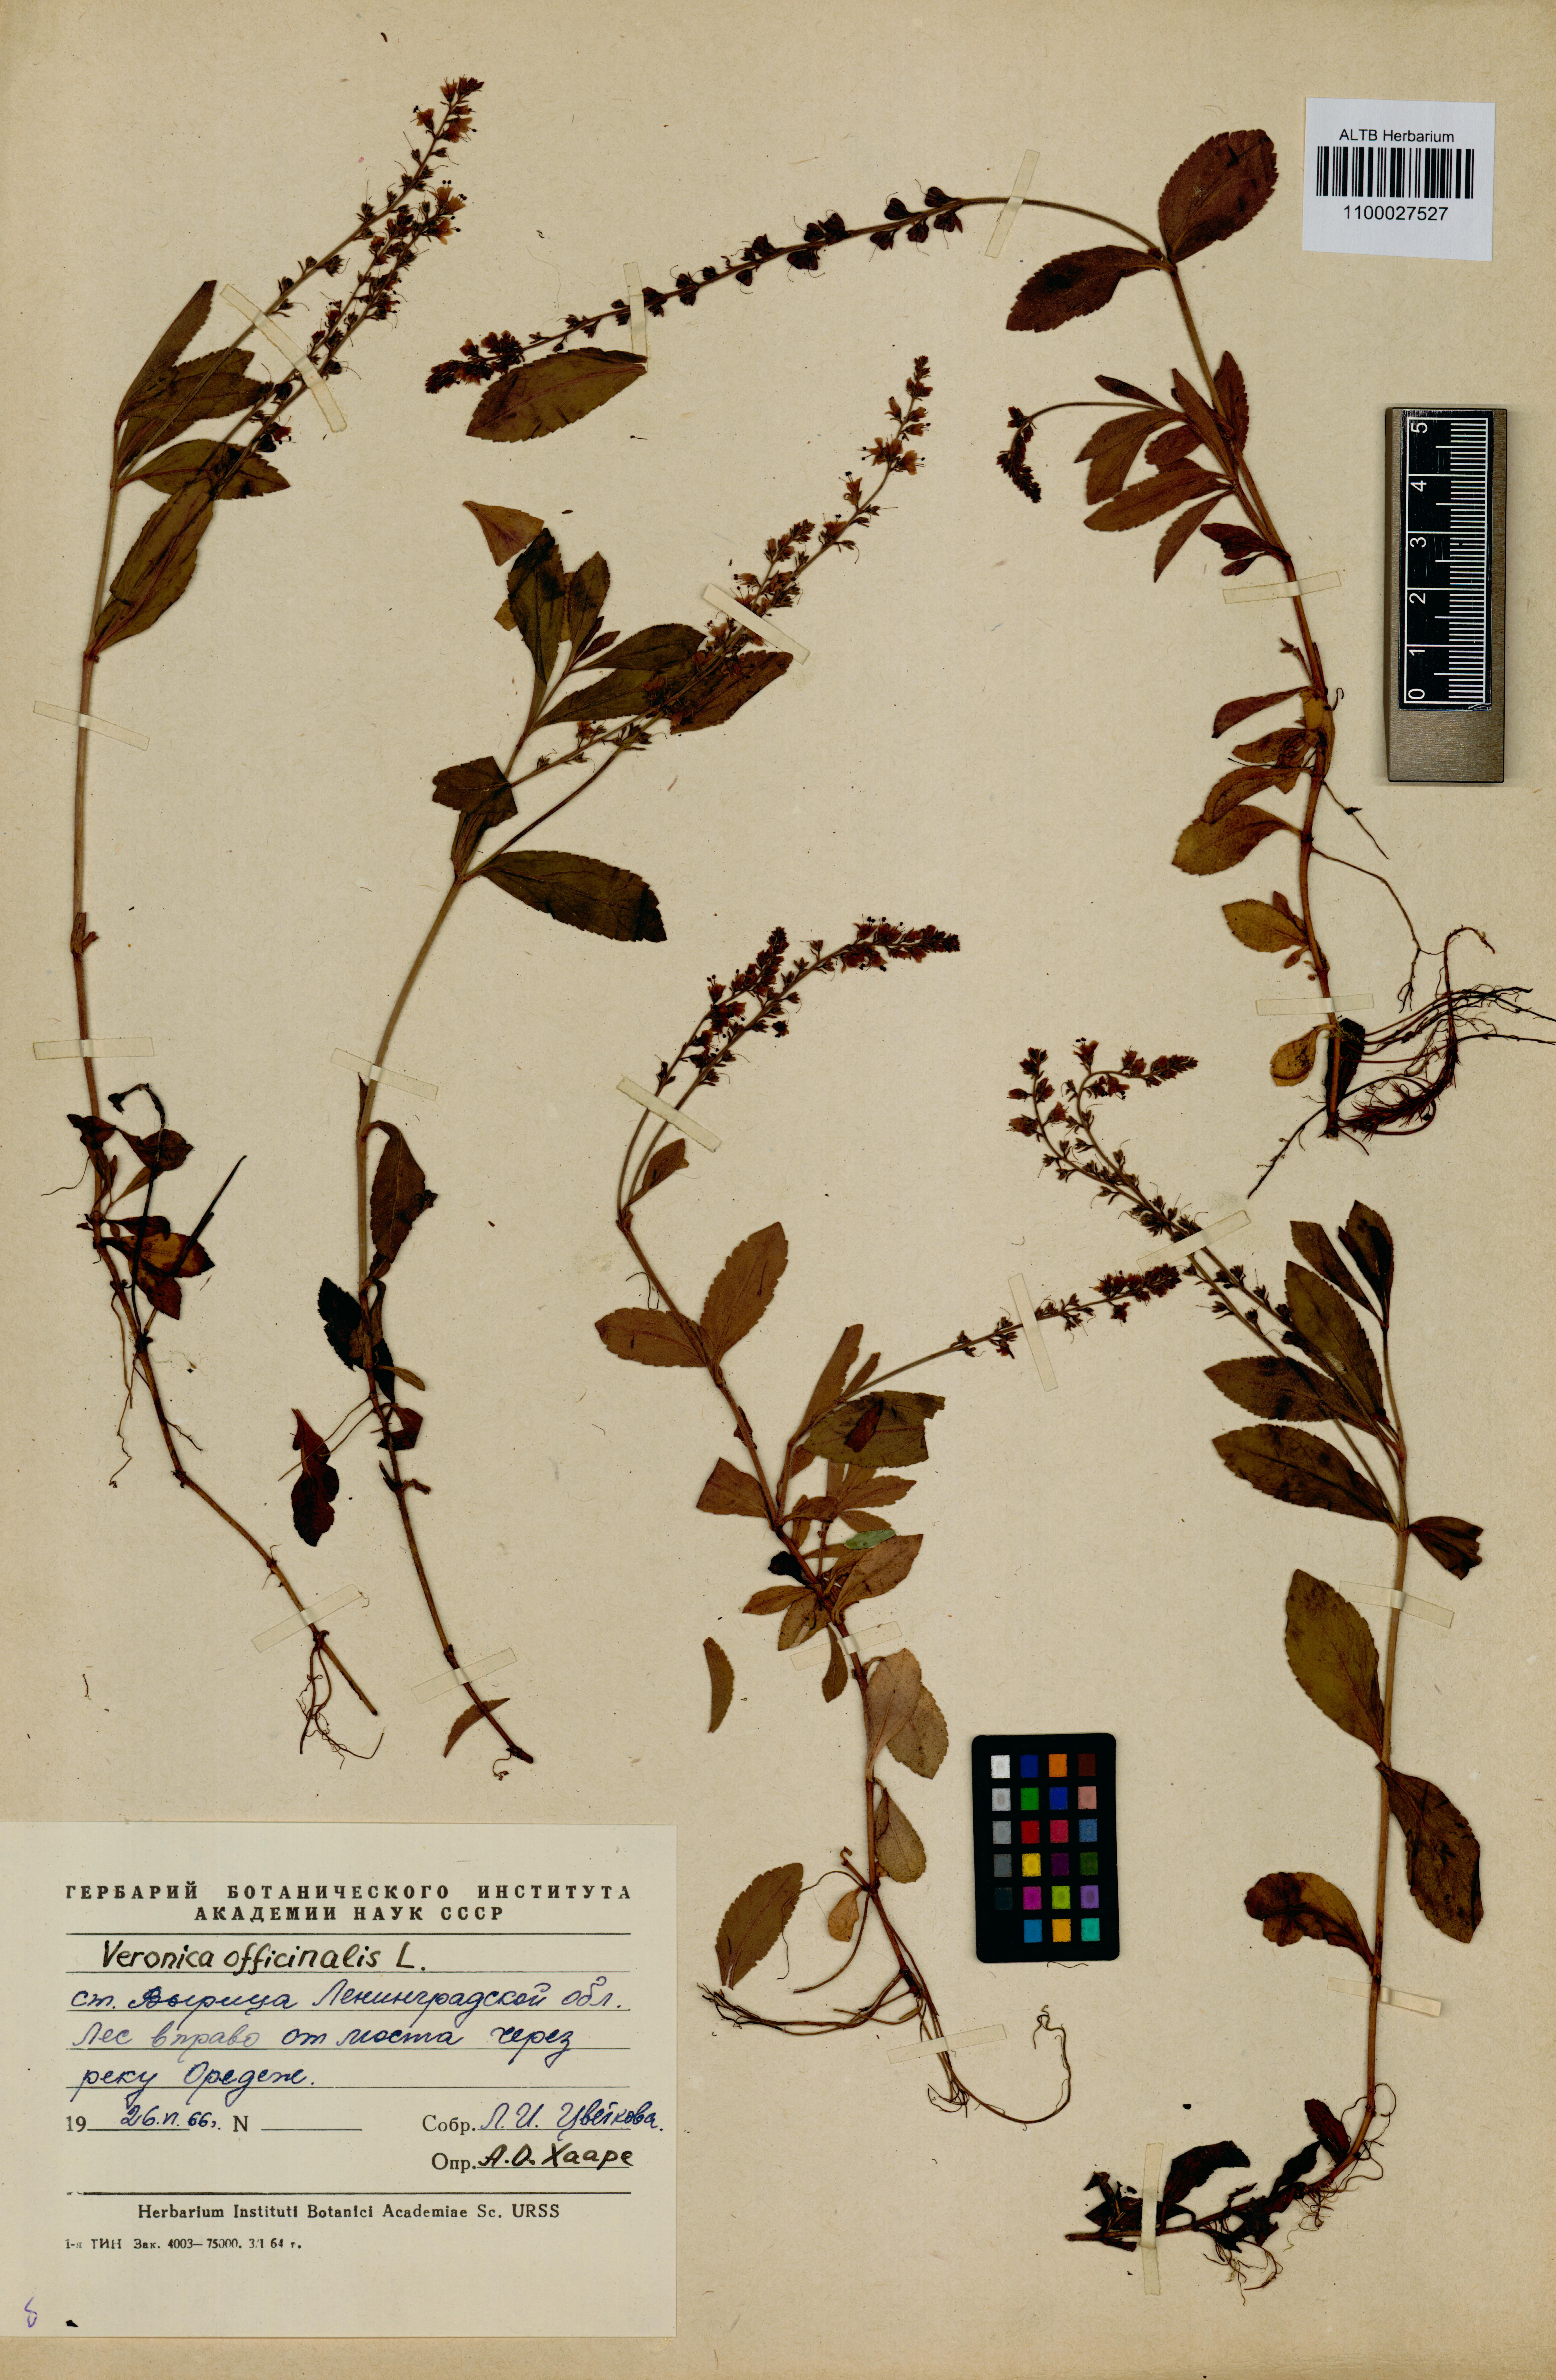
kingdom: Plantae
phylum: Tracheophyta
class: Magnoliopsida
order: Lamiales
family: Plantaginaceae
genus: Veronica
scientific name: Veronica officinalis
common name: Common speedwell
